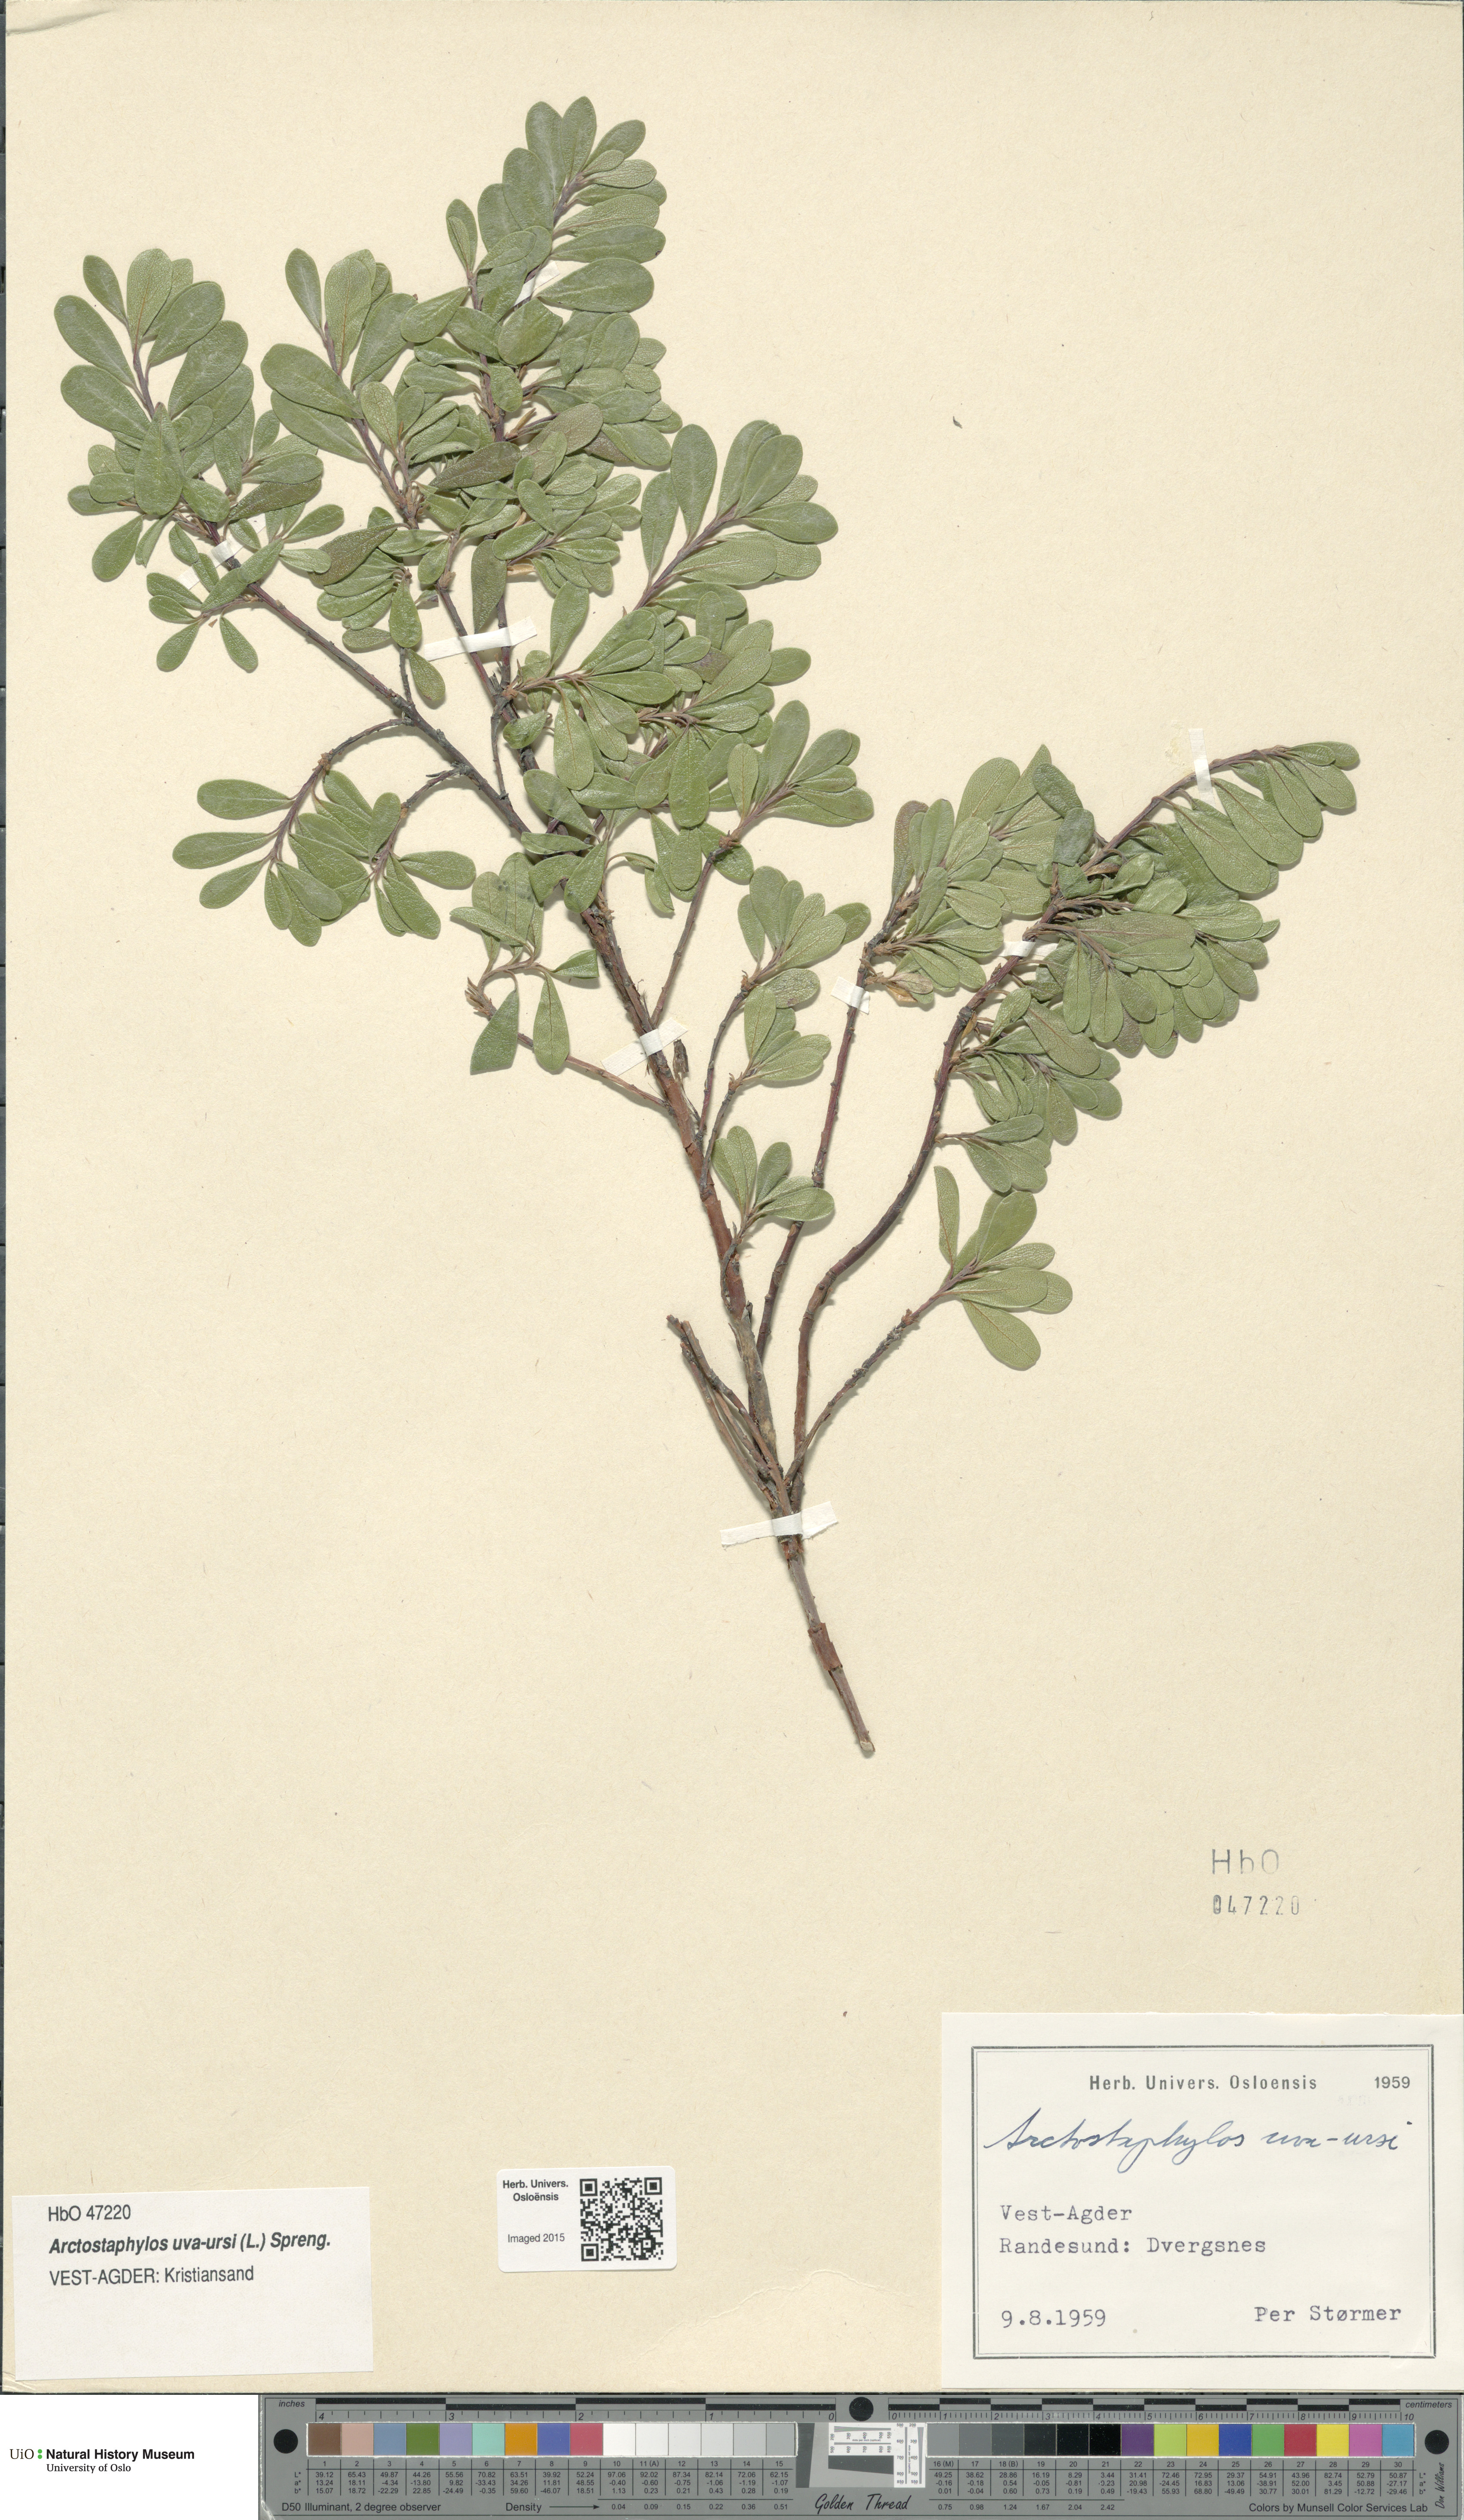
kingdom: Plantae
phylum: Tracheophyta
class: Magnoliopsida
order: Ericales
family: Ericaceae
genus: Arctostaphylos
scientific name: Arctostaphylos uva-ursi
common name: Bearberry
